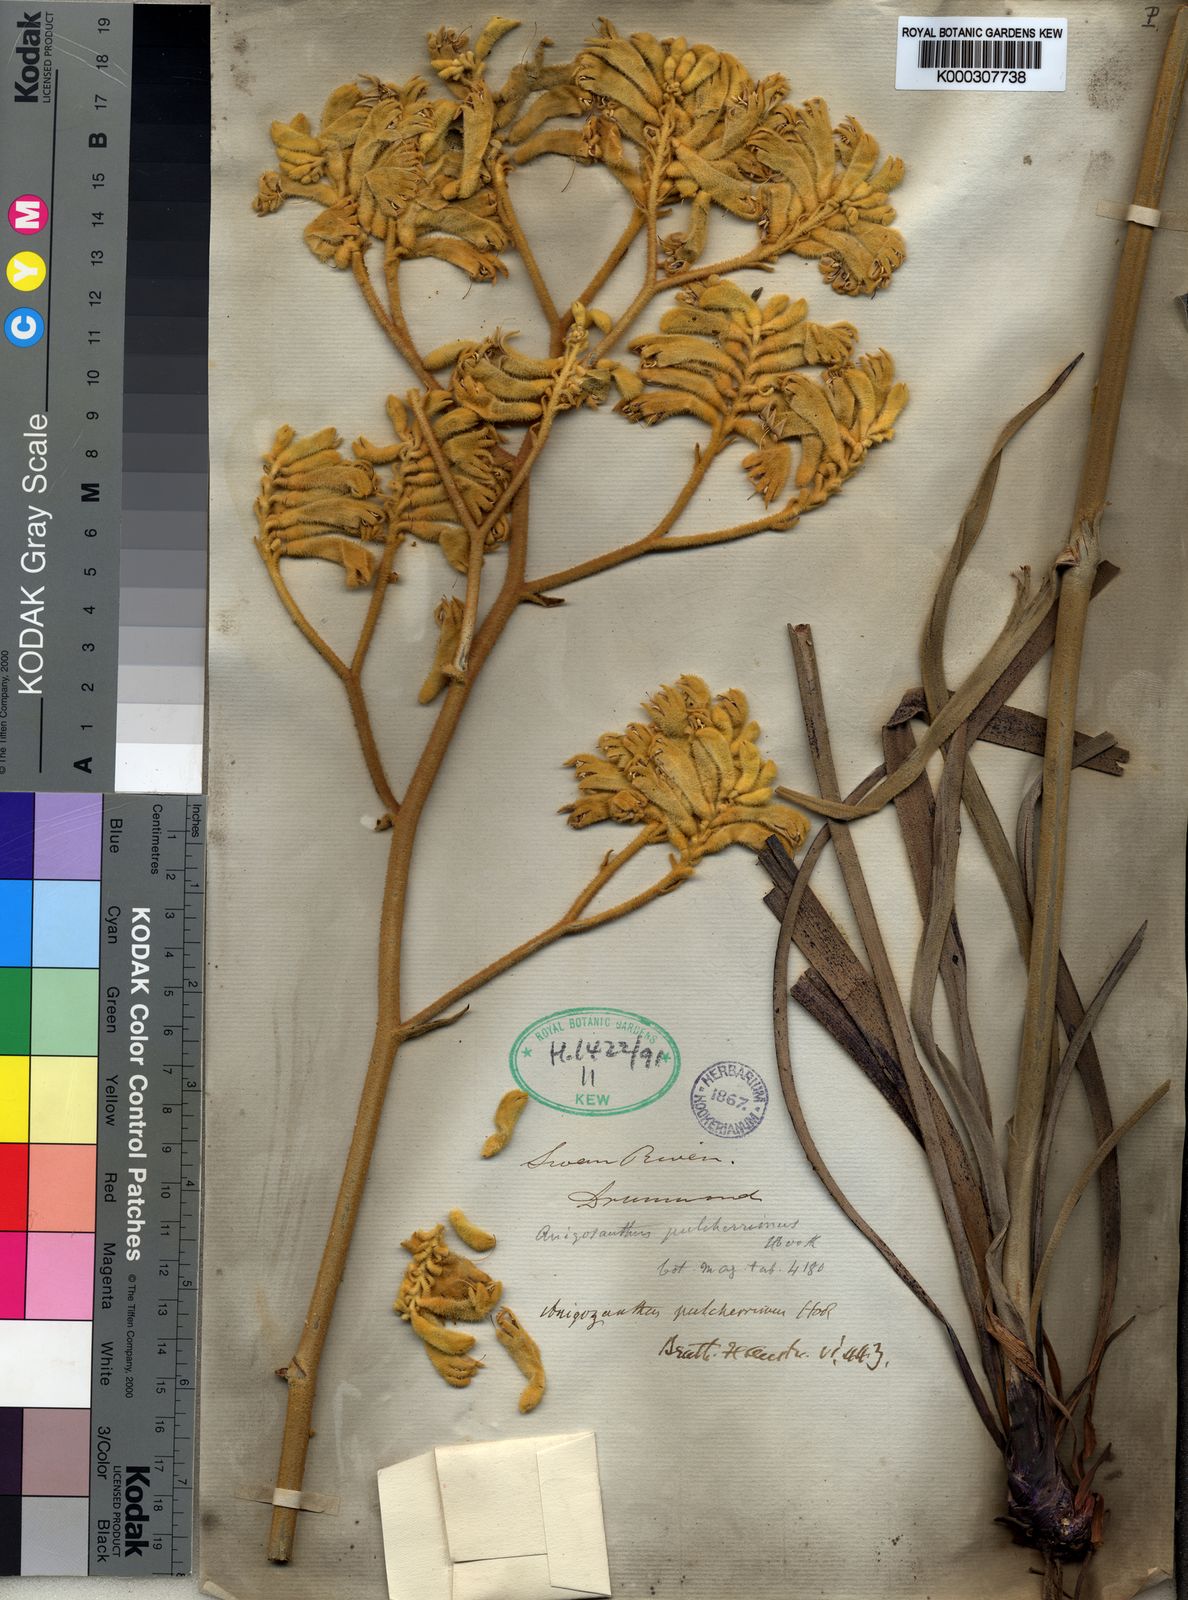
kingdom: Plantae
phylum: Tracheophyta
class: Liliopsida
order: Commelinales
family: Haemodoraceae
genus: Anigozanthos
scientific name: Anigozanthos pulcherrimus
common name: Yellow kangaroo-paw
